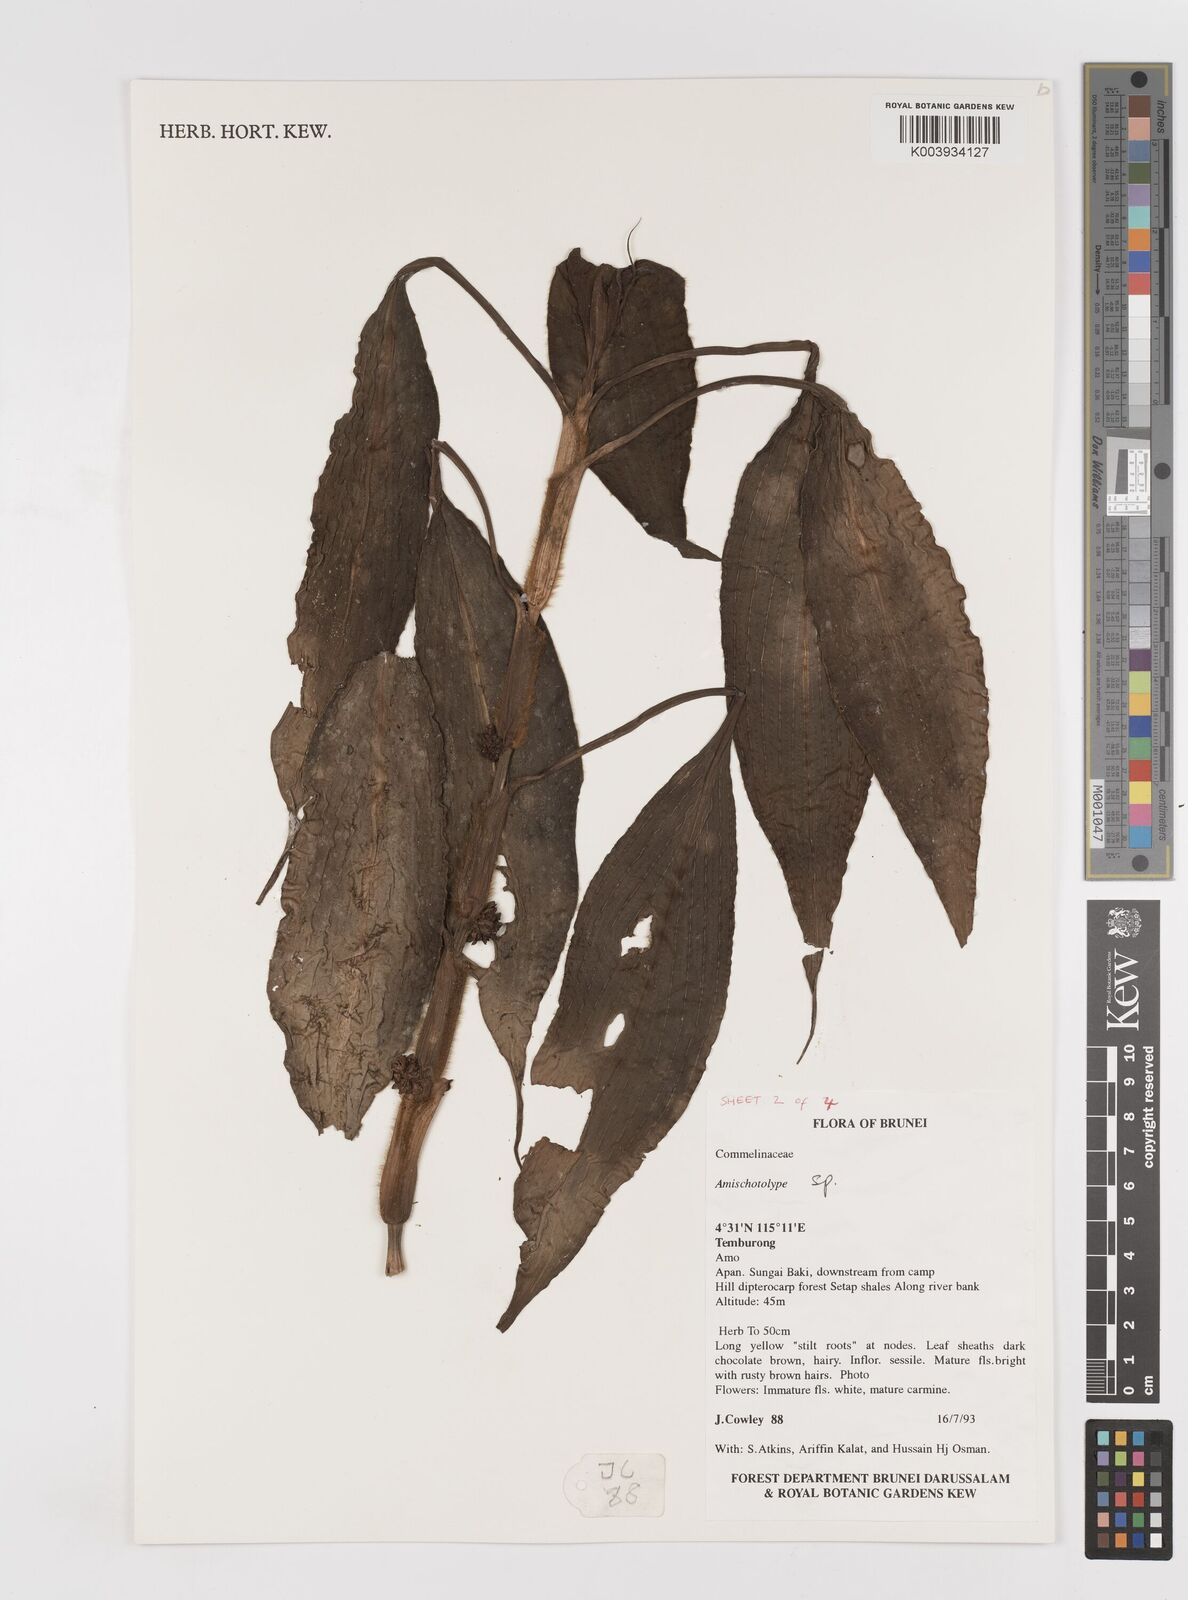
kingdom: Plantae
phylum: Tracheophyta
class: Liliopsida
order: Commelinales
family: Commelinaceae
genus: Amischotolype
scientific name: Amischotolype
